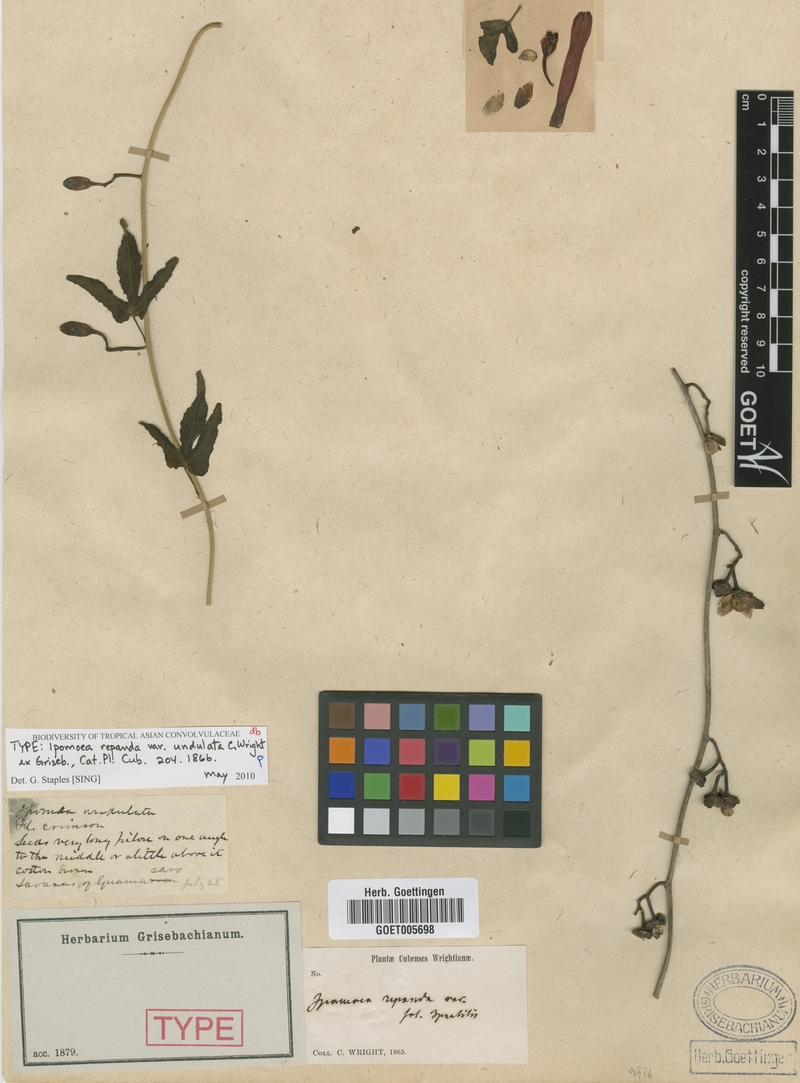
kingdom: Plantae
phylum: Tracheophyta
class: Magnoliopsida
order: Solanales
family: Convolvulaceae
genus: Ipomoea
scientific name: Ipomoea microdactyla
